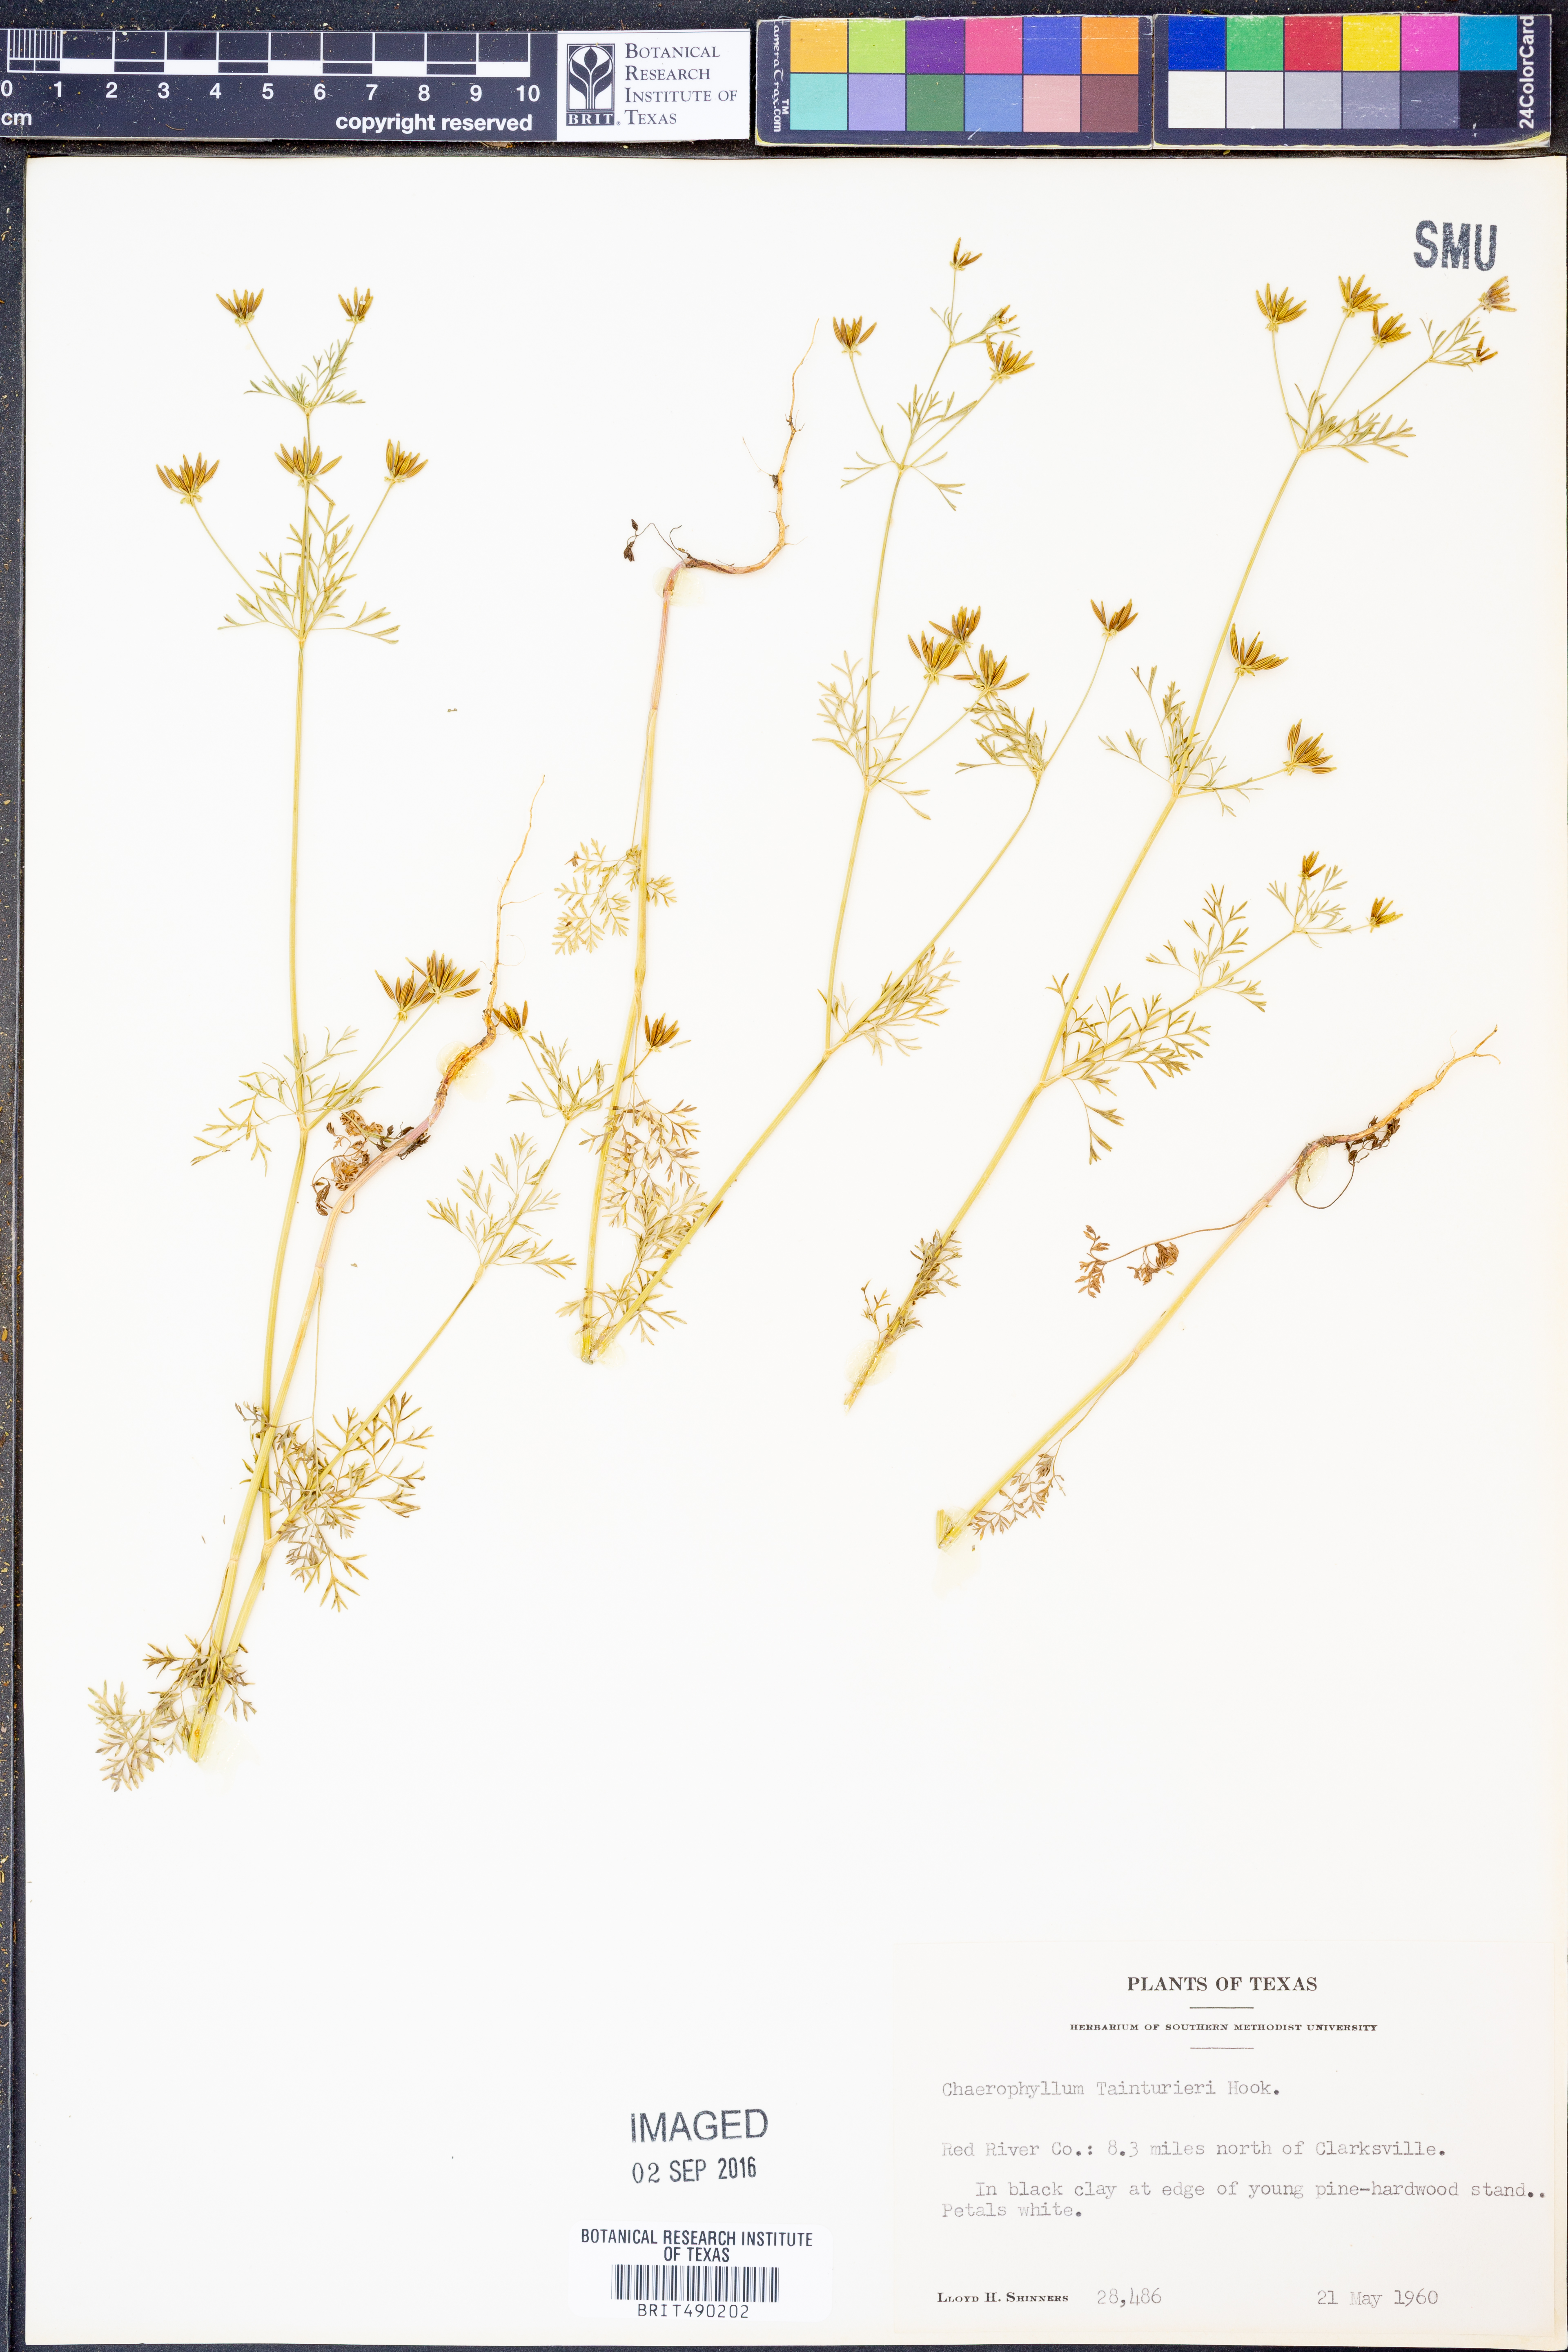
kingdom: Plantae
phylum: Tracheophyta
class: Magnoliopsida
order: Apiales
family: Apiaceae
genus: Chaerophyllum
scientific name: Chaerophyllum tainturieri
